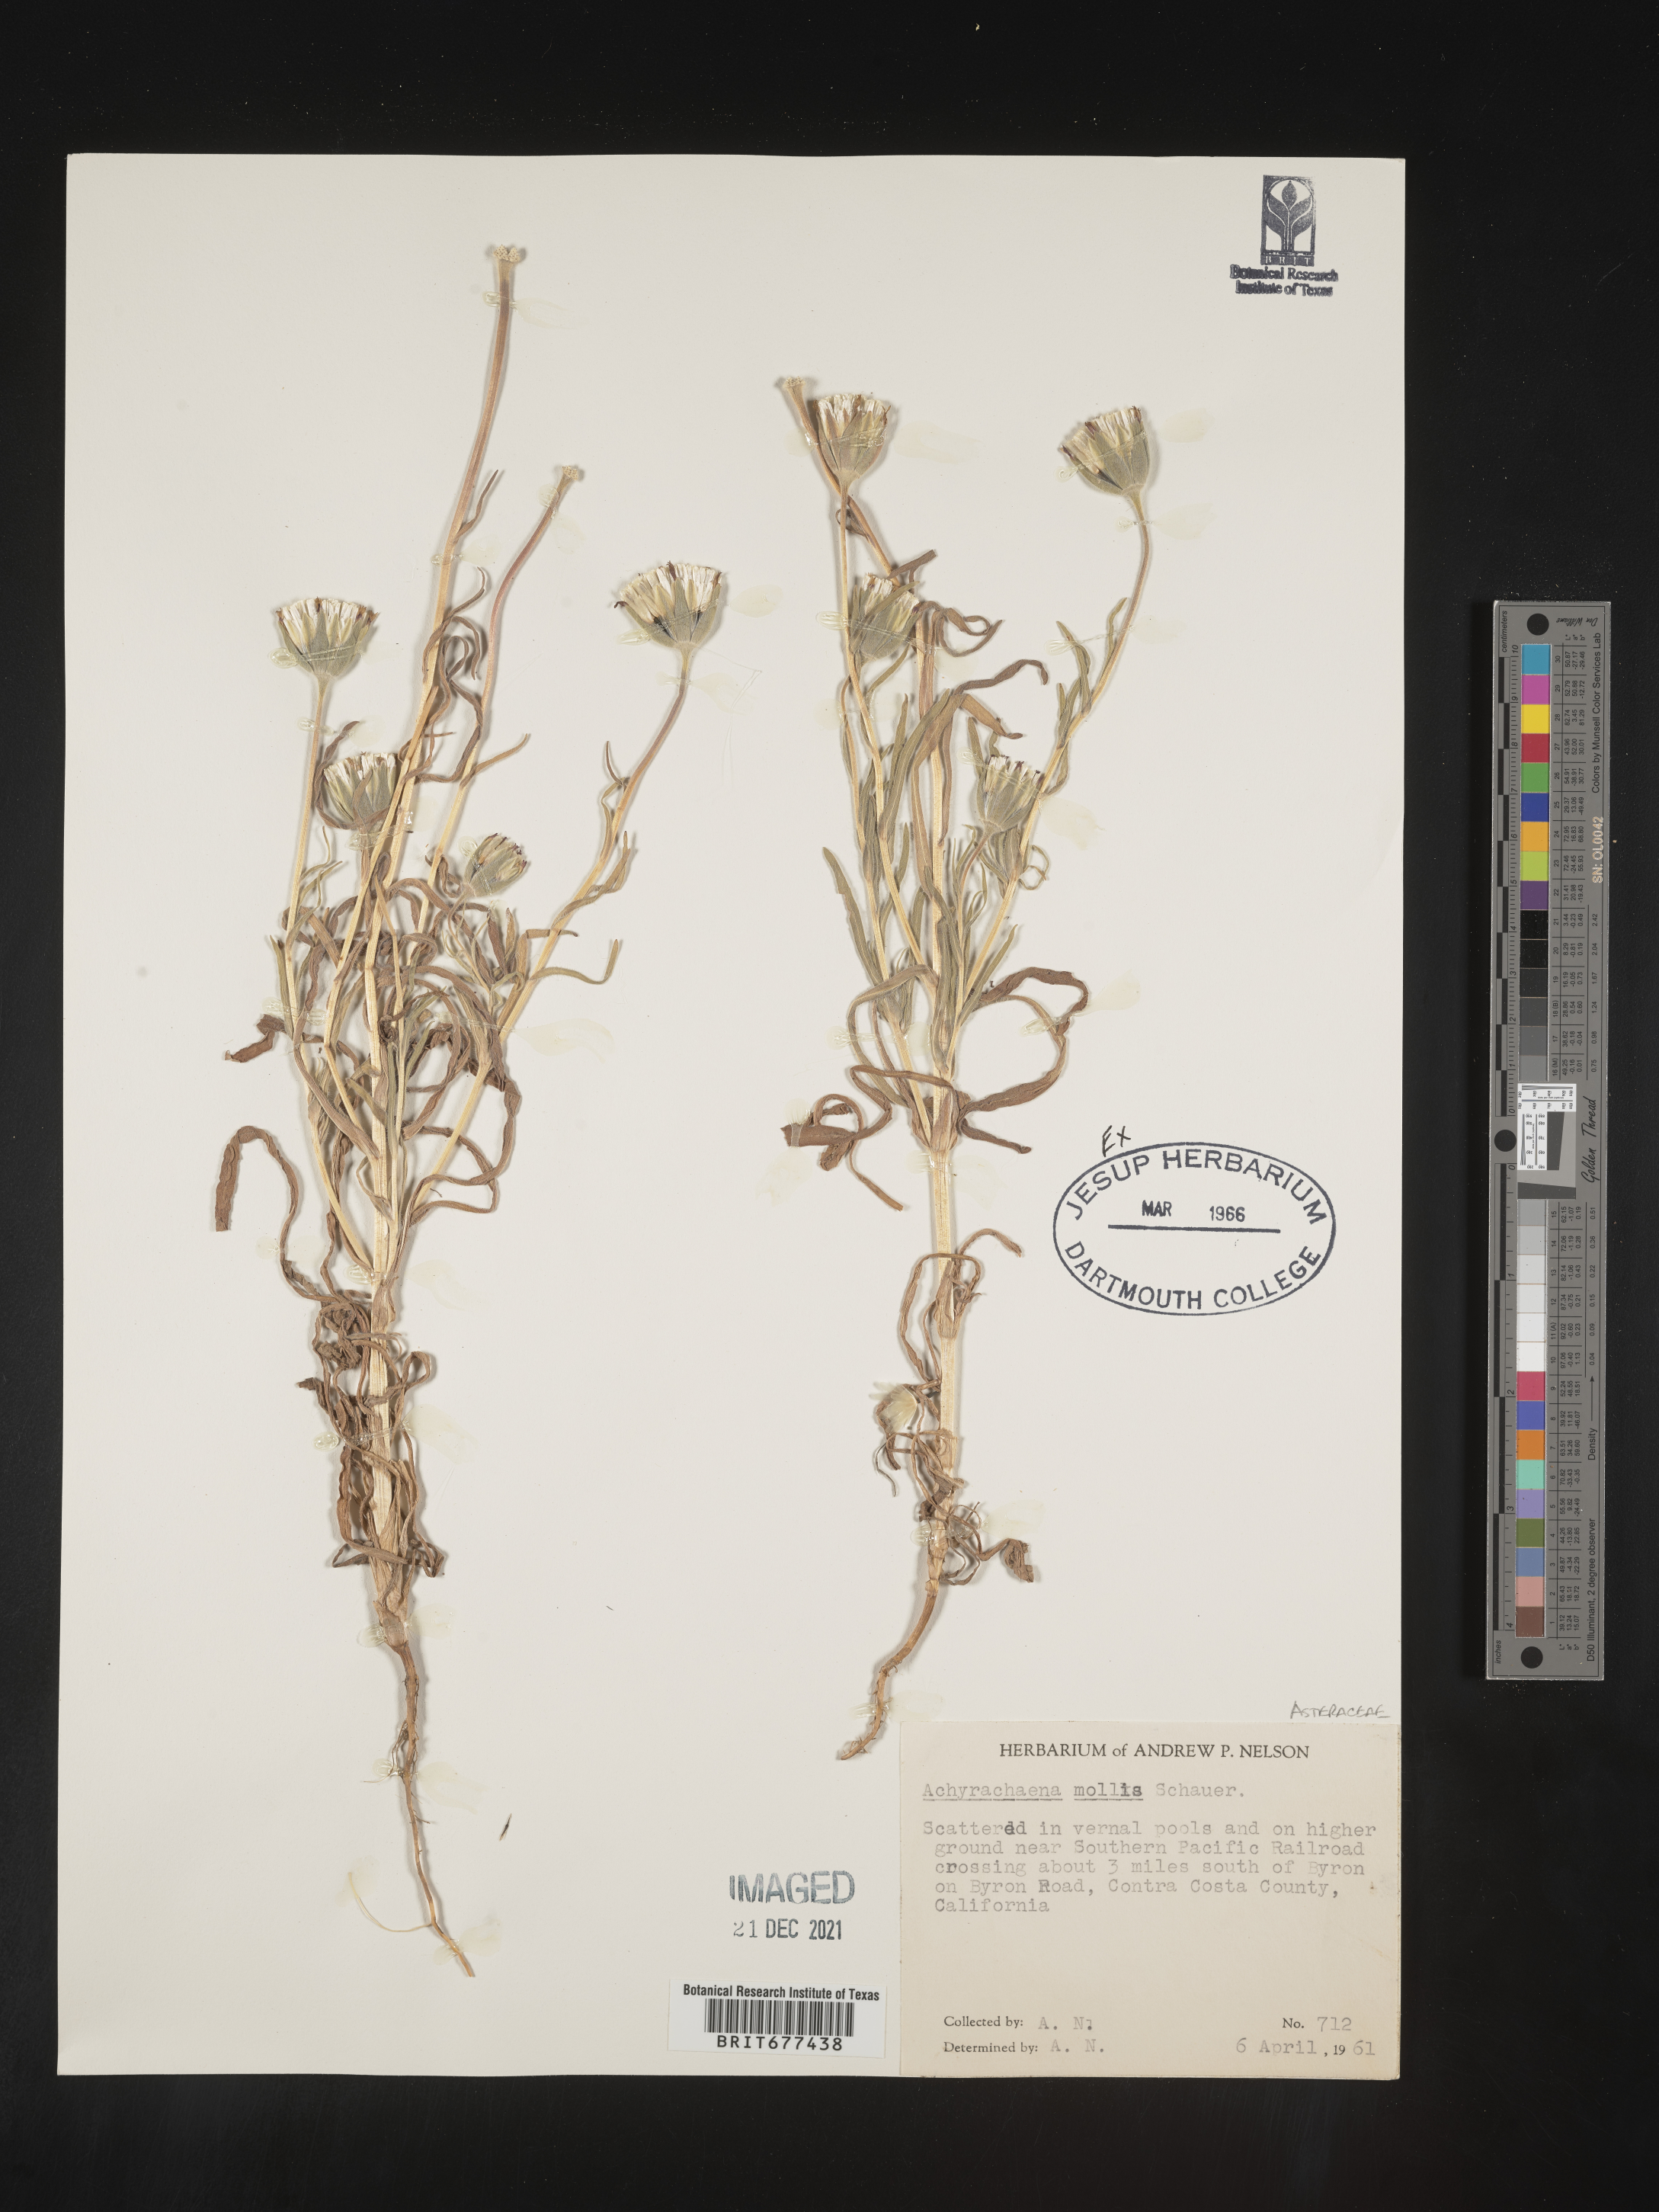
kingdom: Plantae
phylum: Tracheophyta
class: Magnoliopsida
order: Asterales
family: Asteraceae
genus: Achyrachaena
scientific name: Achyrachaena mollis
